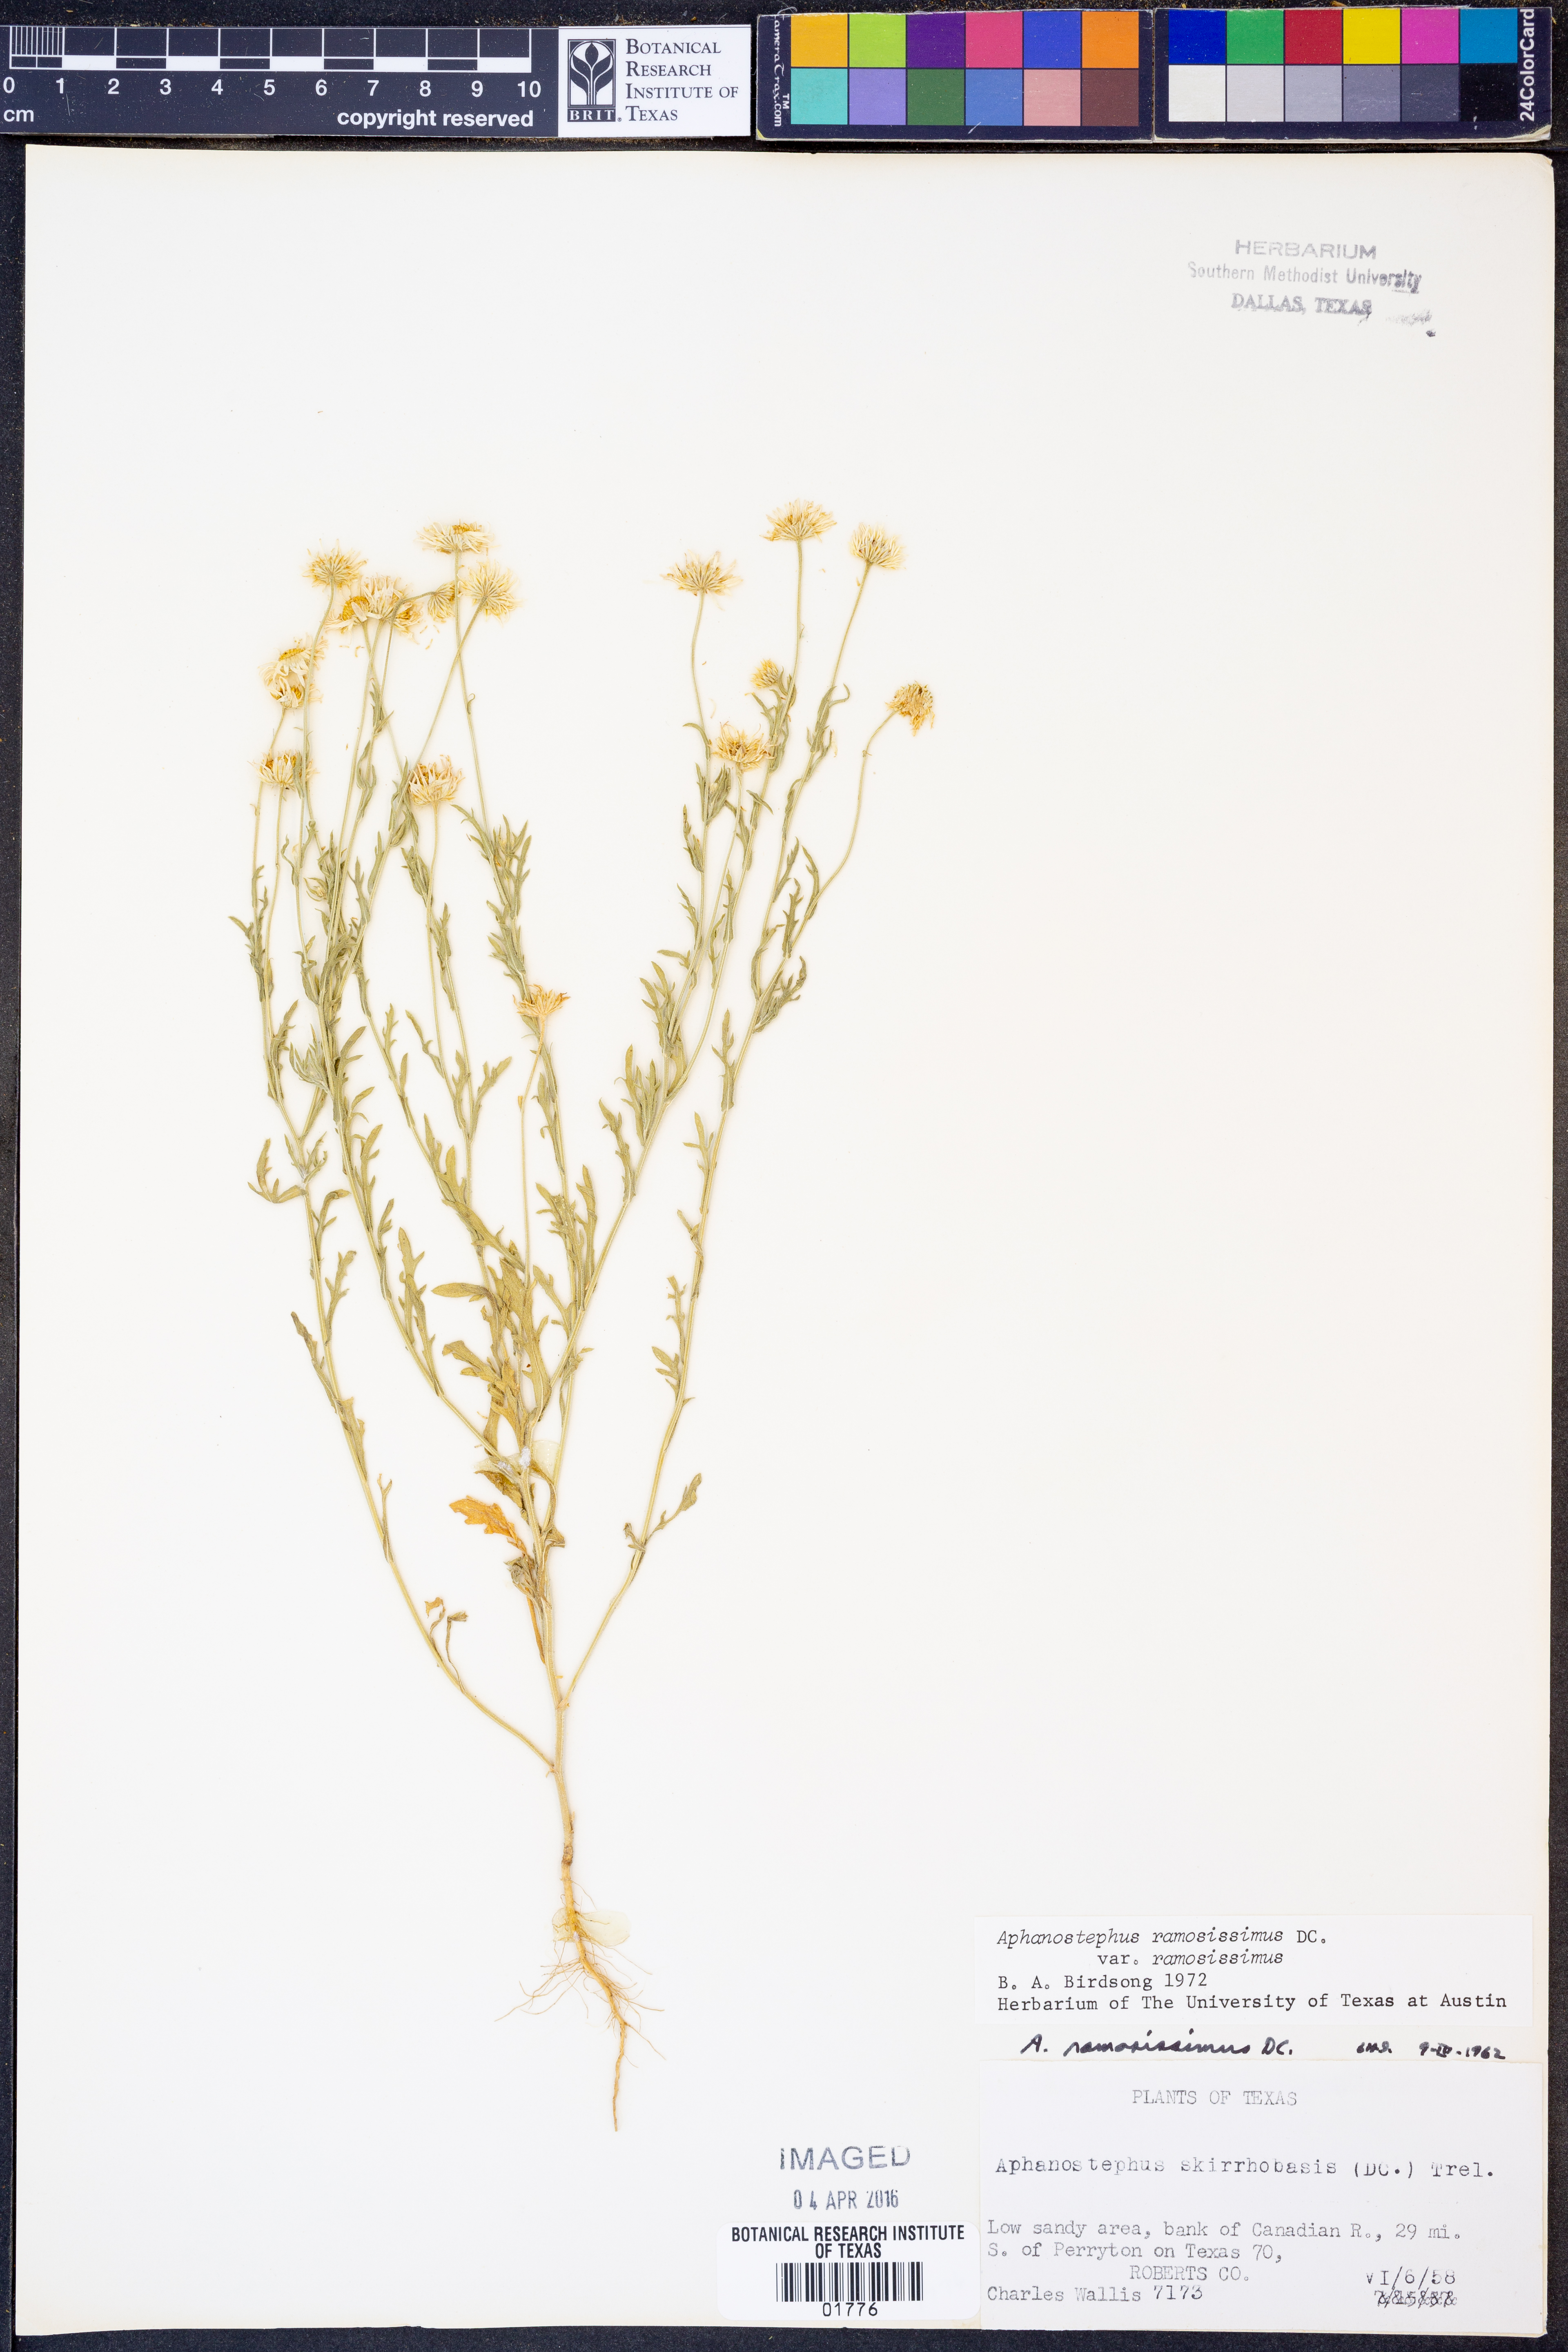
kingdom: Plantae
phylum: Tracheophyta
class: Magnoliopsida
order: Asterales
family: Asteraceae
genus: Aphanostephus
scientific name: Aphanostephus ramosissimus
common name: Plains lazy daisy
